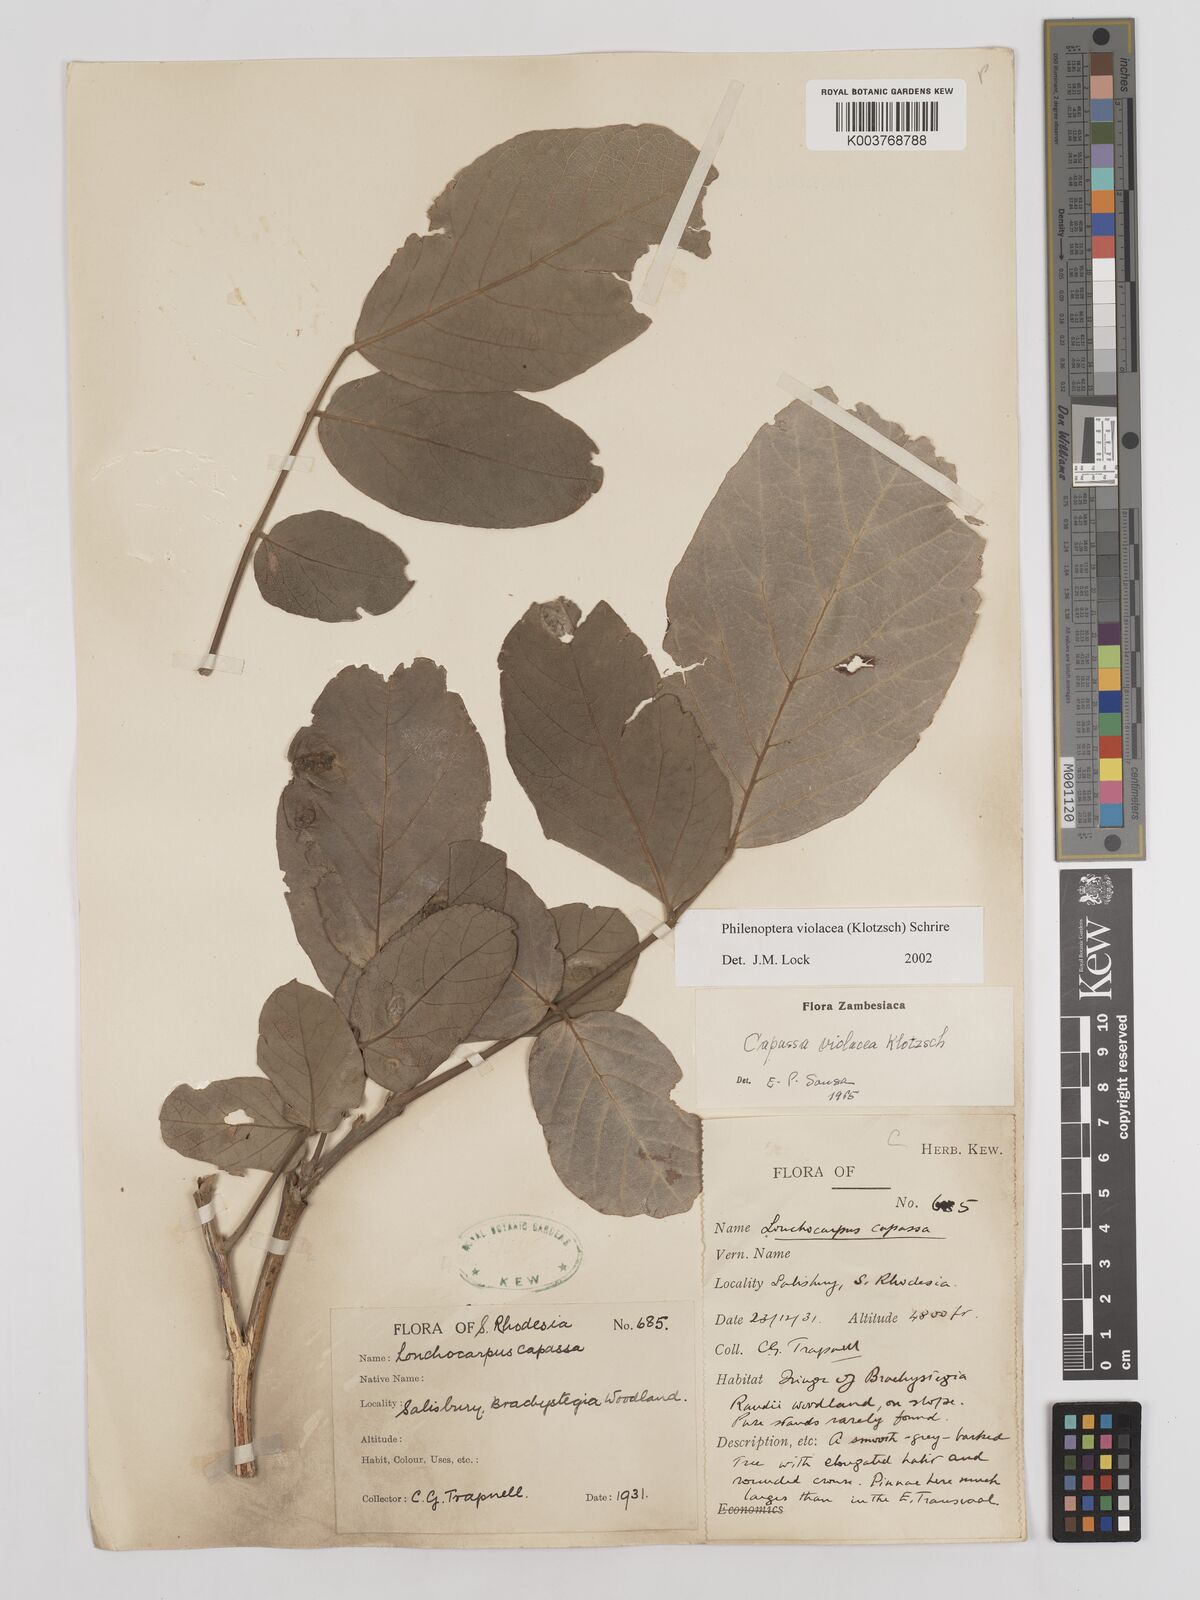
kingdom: Plantae
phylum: Tracheophyta
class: Magnoliopsida
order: Fabales
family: Fabaceae
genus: Philenoptera
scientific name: Philenoptera violacea
